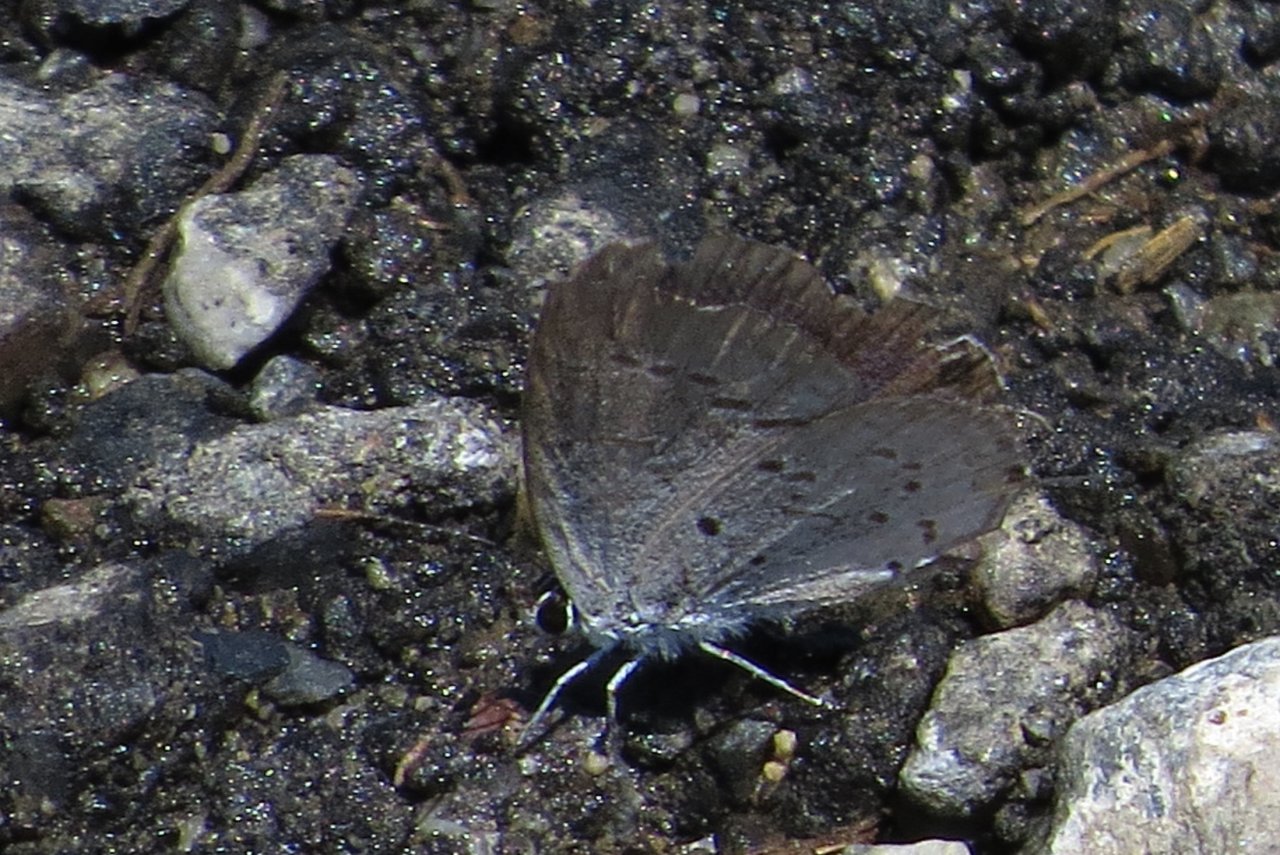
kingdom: Animalia
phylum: Arthropoda
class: Insecta
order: Lepidoptera
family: Lycaenidae
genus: Cyaniris
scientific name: Cyaniris neglecta
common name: Summer Azure
